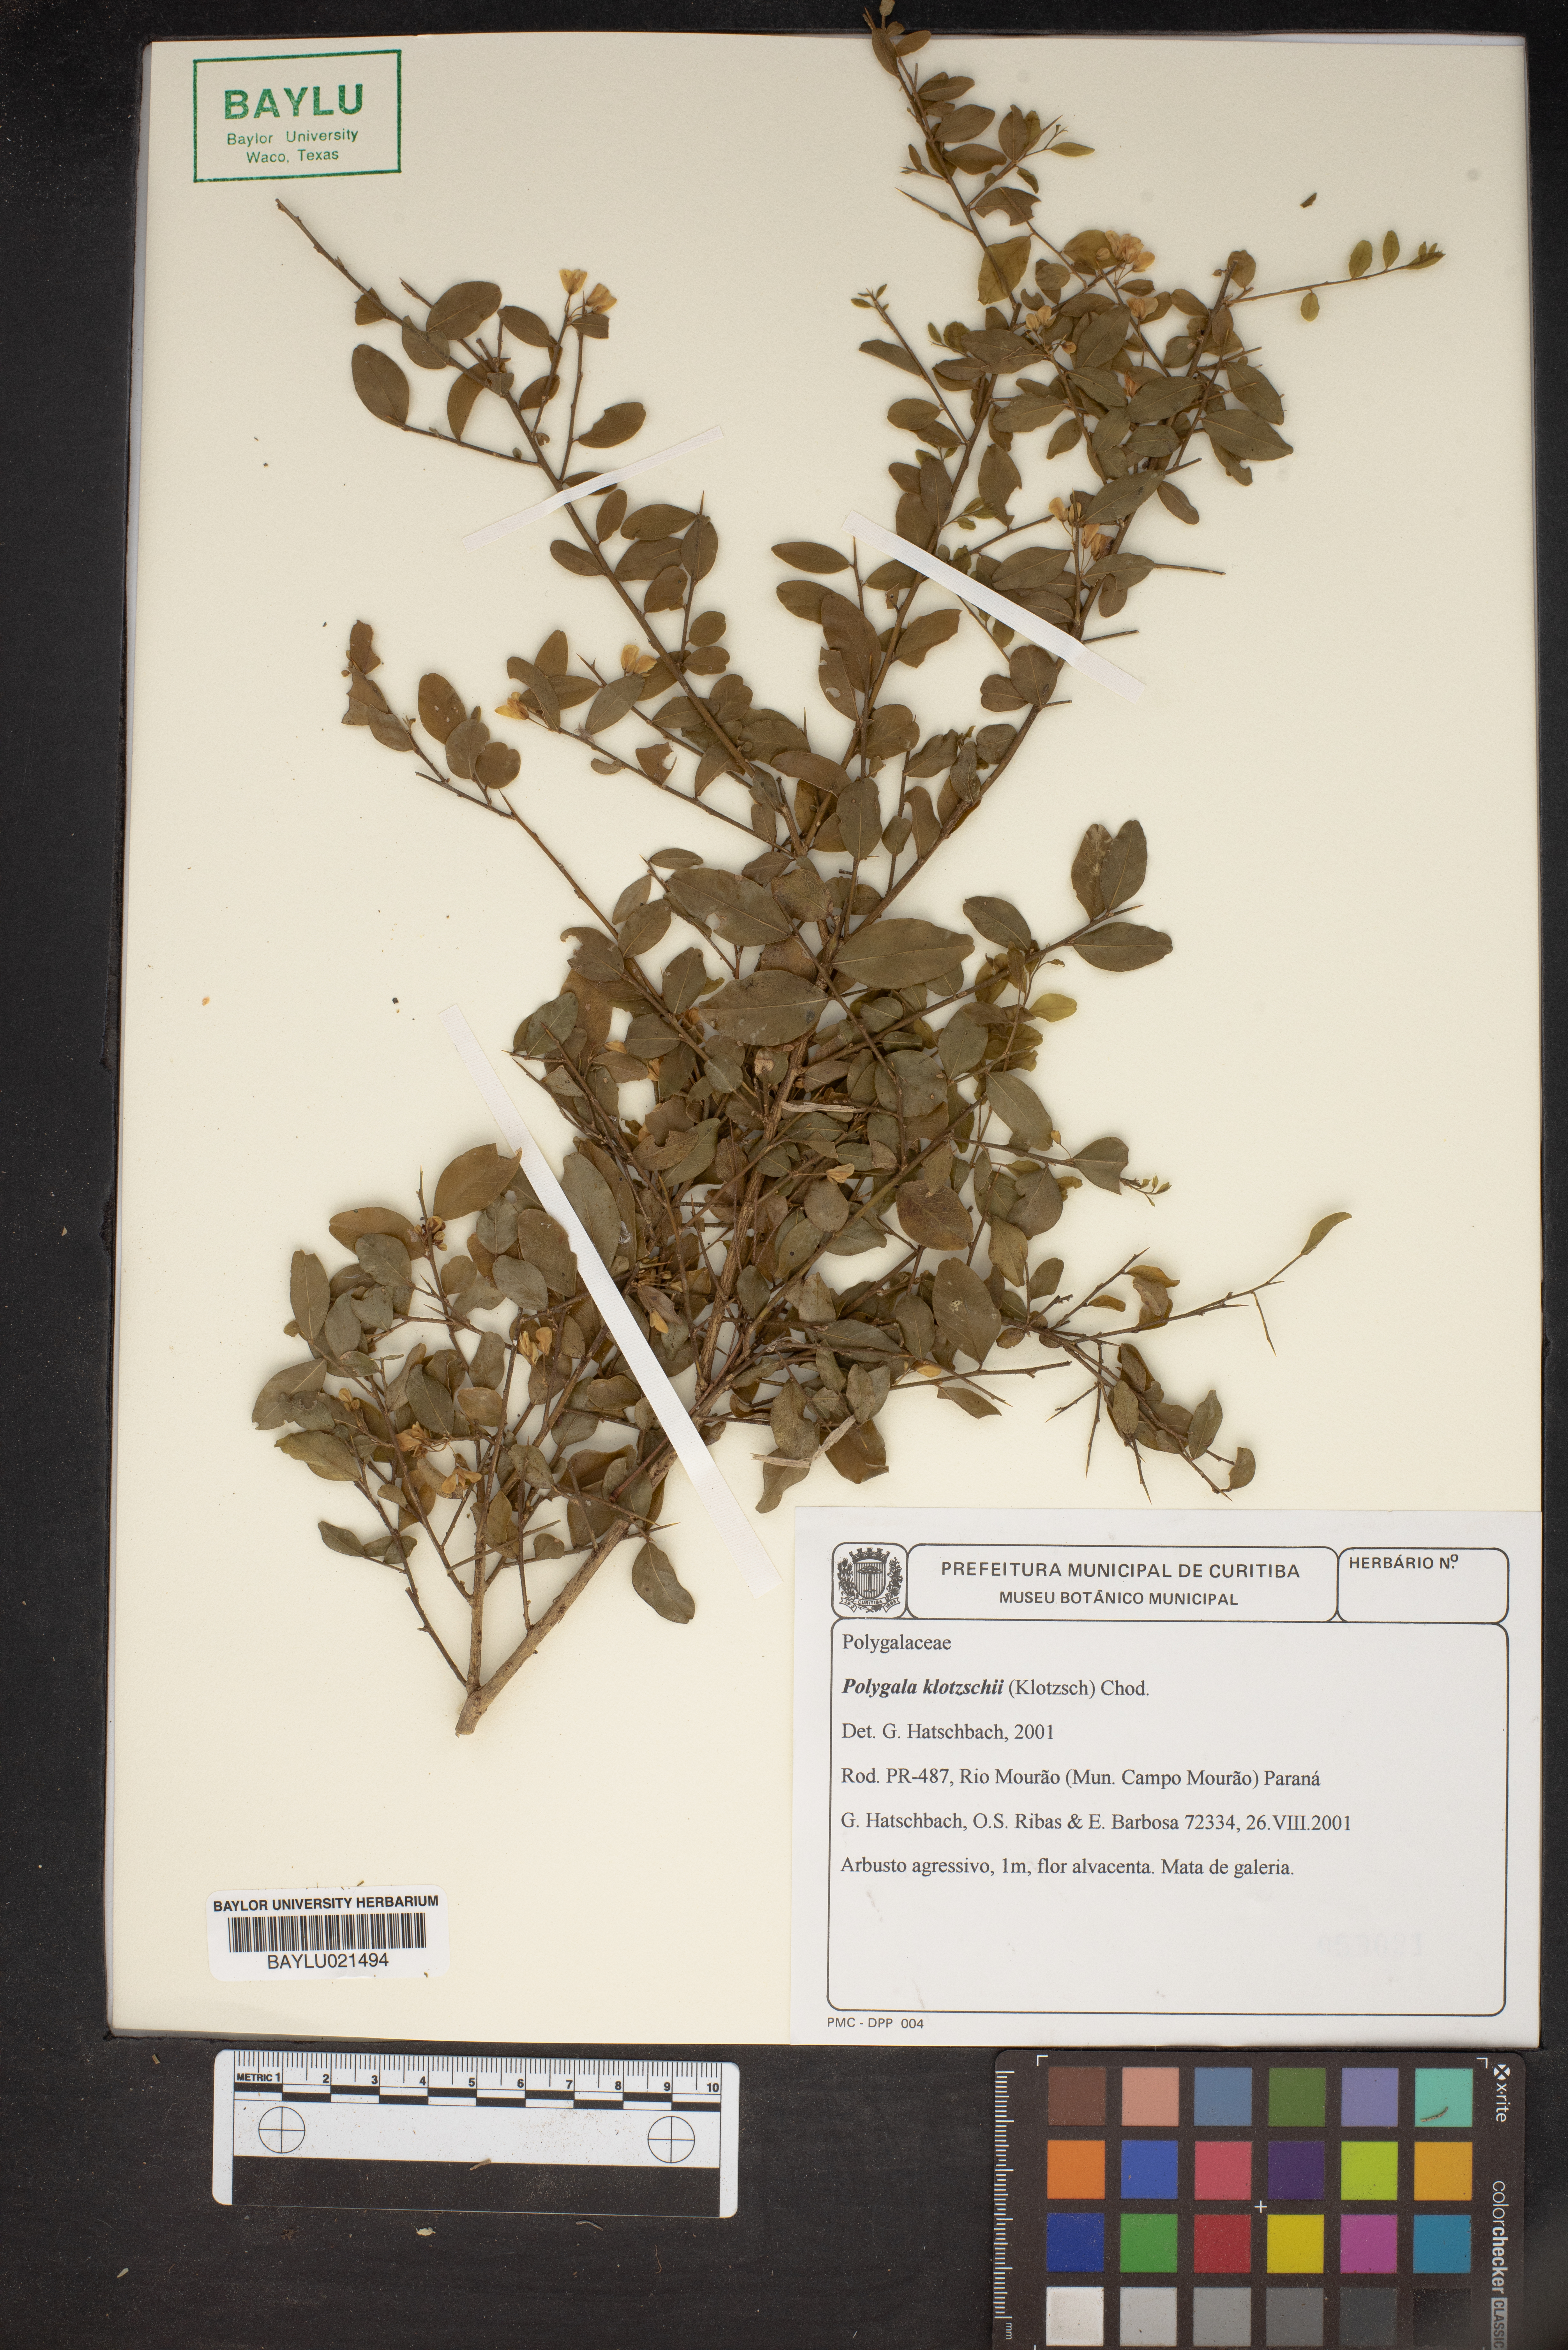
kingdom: Plantae
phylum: Tracheophyta
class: Magnoliopsida
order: Fabales
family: Polygalaceae
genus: Acanthocladus
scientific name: Acanthocladus brasiliensis
